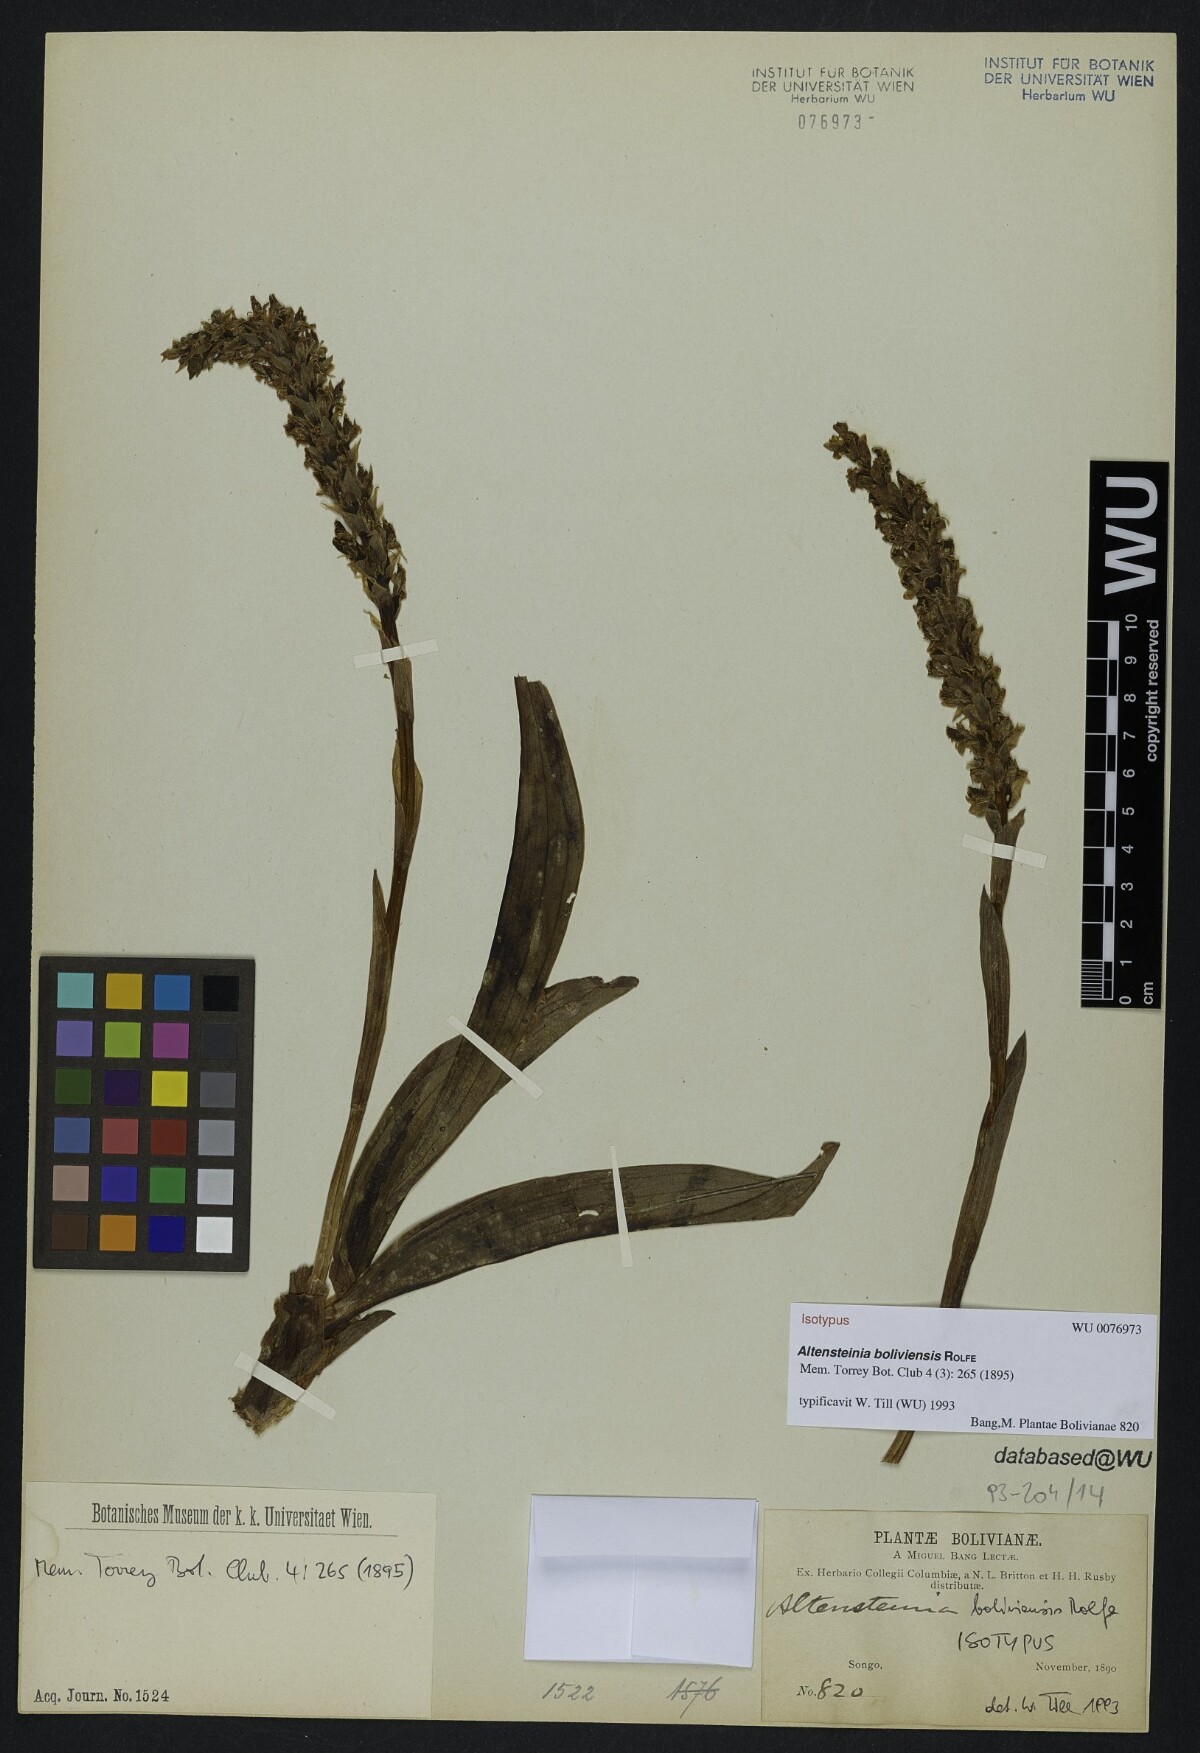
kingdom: Plantae
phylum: Tracheophyta
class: Liliopsida
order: Asparagales
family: Orchidaceae
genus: Altensteinia
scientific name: Altensteinia boliviensis
